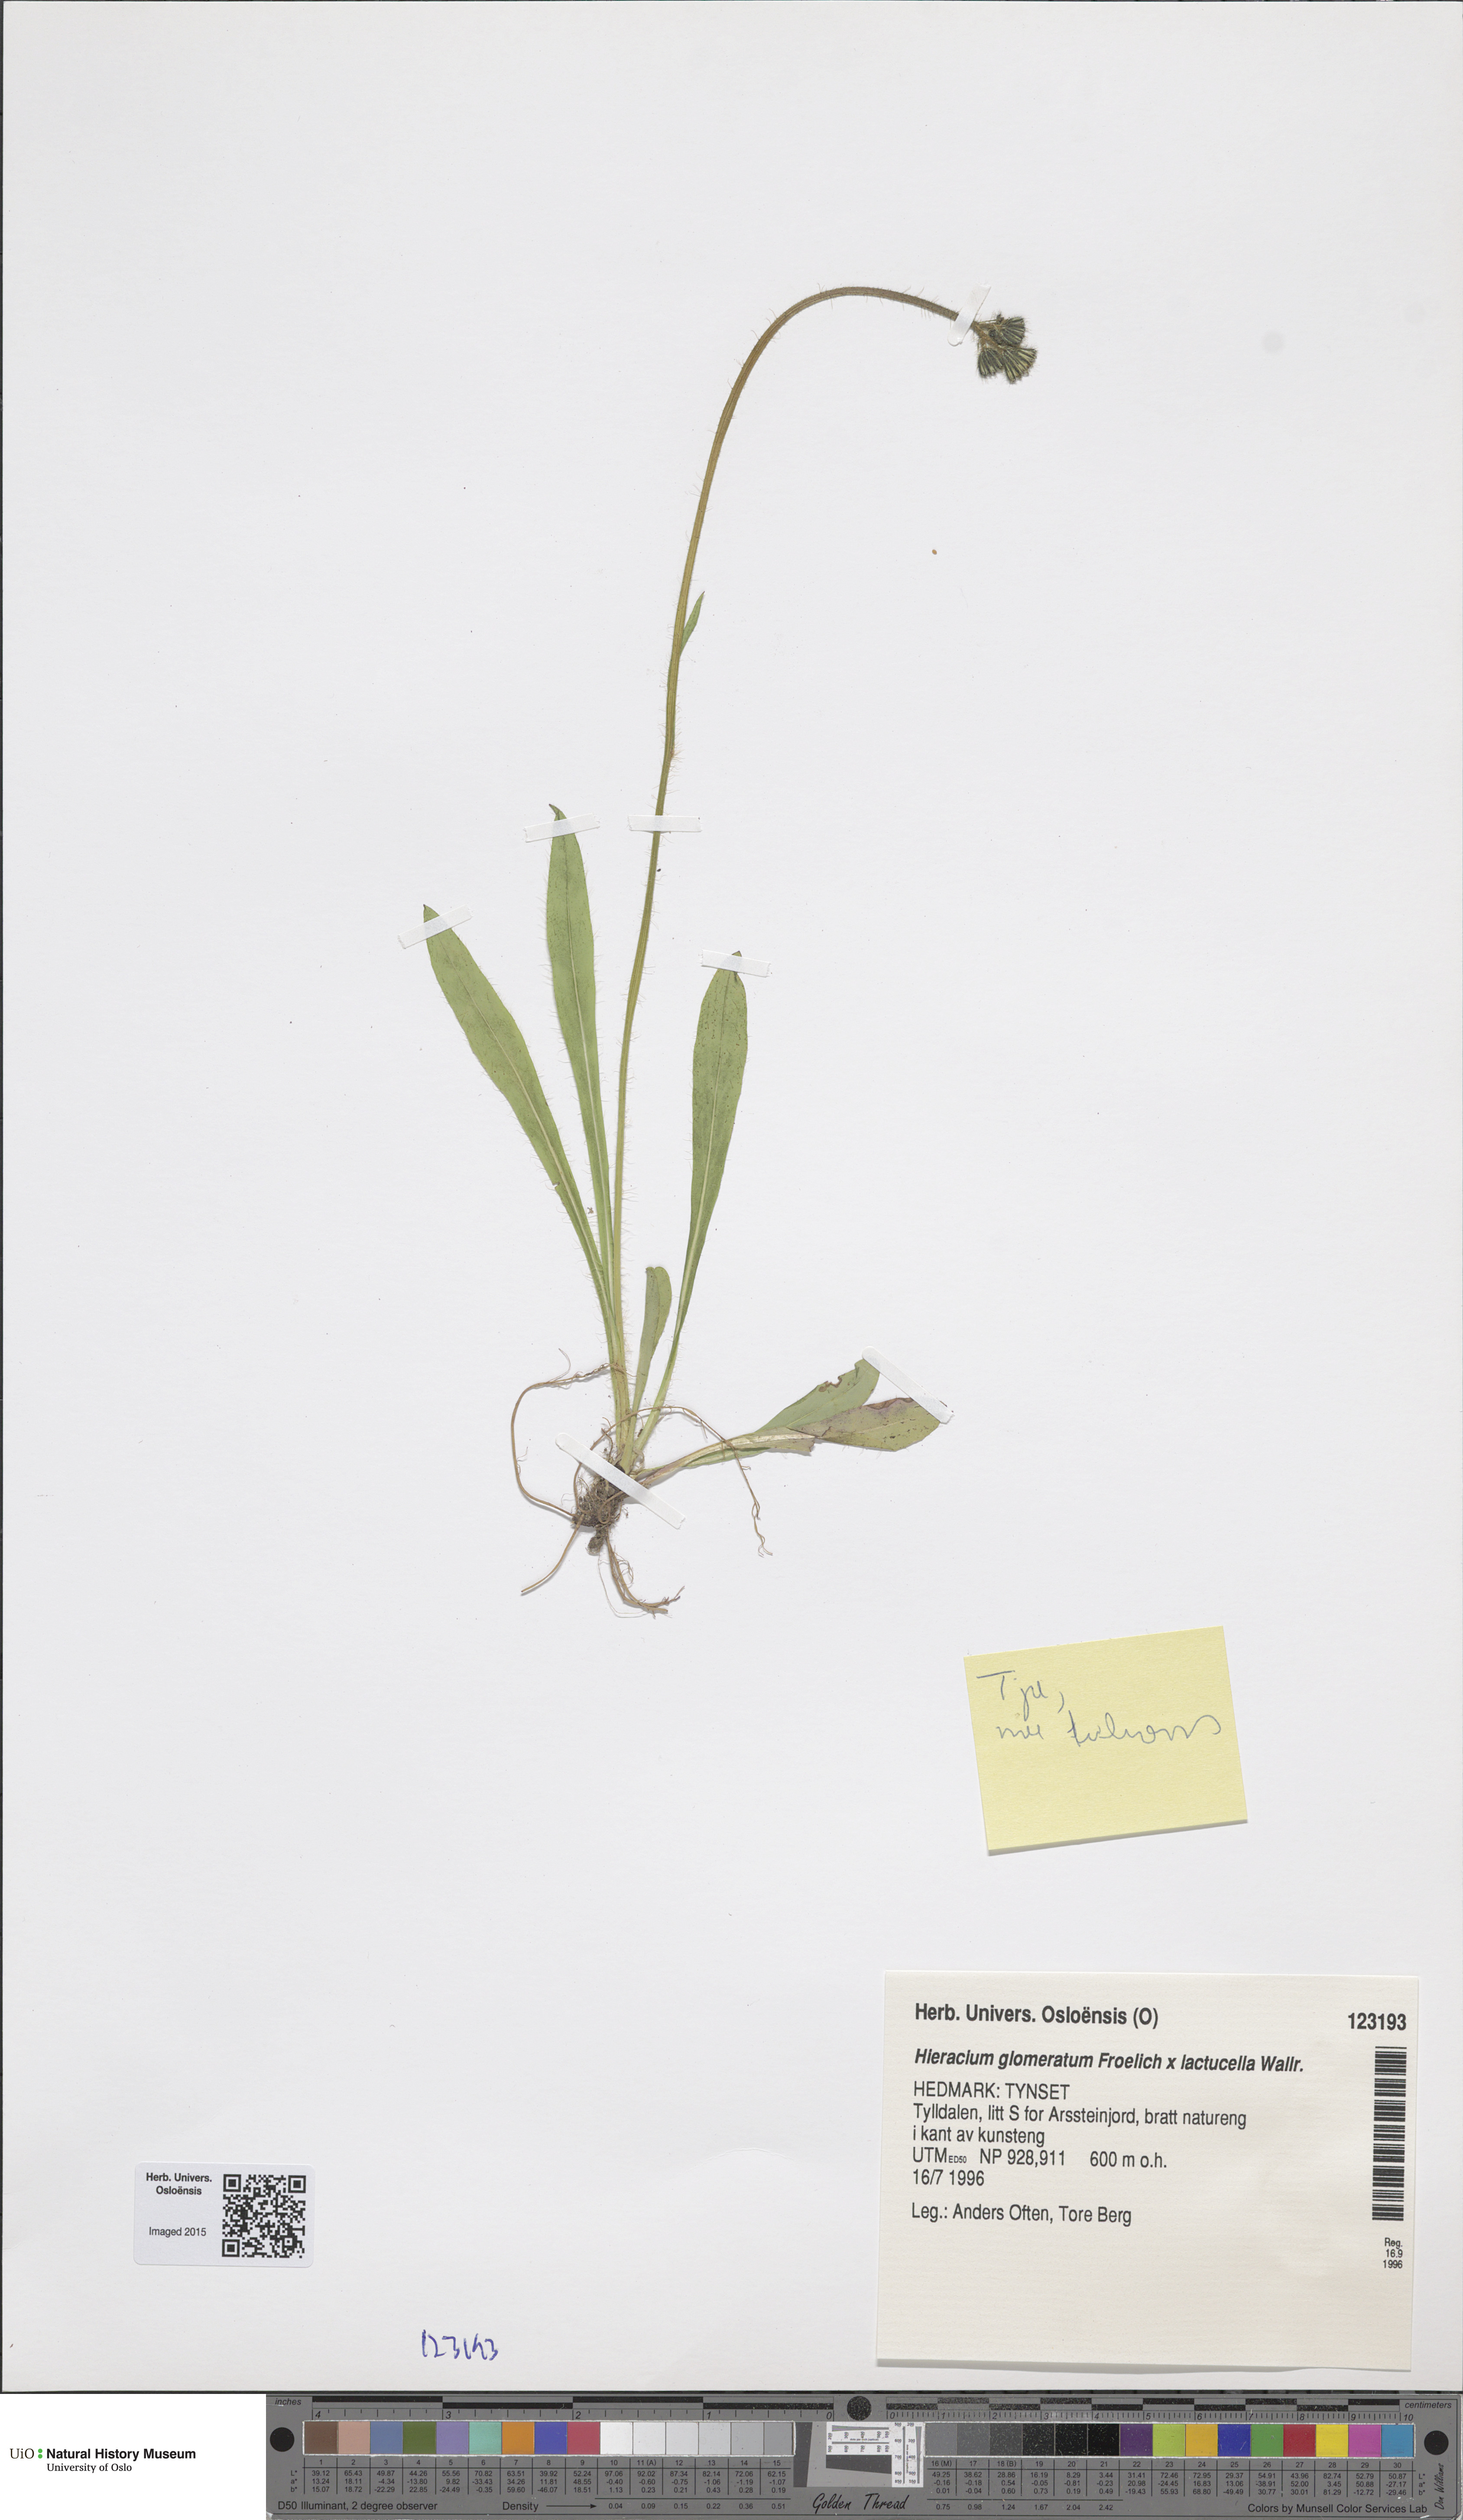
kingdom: Plantae
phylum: Tracheophyta
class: Magnoliopsida
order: Asterales
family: Asteraceae
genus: Pilosella
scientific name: Pilosella
